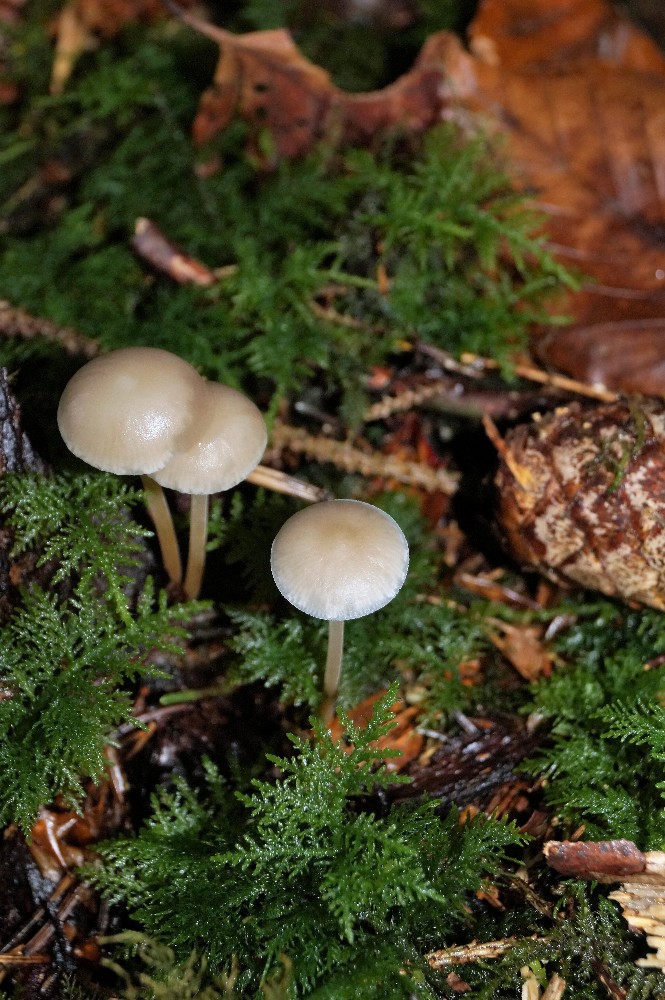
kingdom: Fungi
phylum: Basidiomycota
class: Agaricomycetes
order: Agaricales
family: Physalacriaceae
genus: Strobilurus
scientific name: Strobilurus esculentus
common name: gran-koglehat
